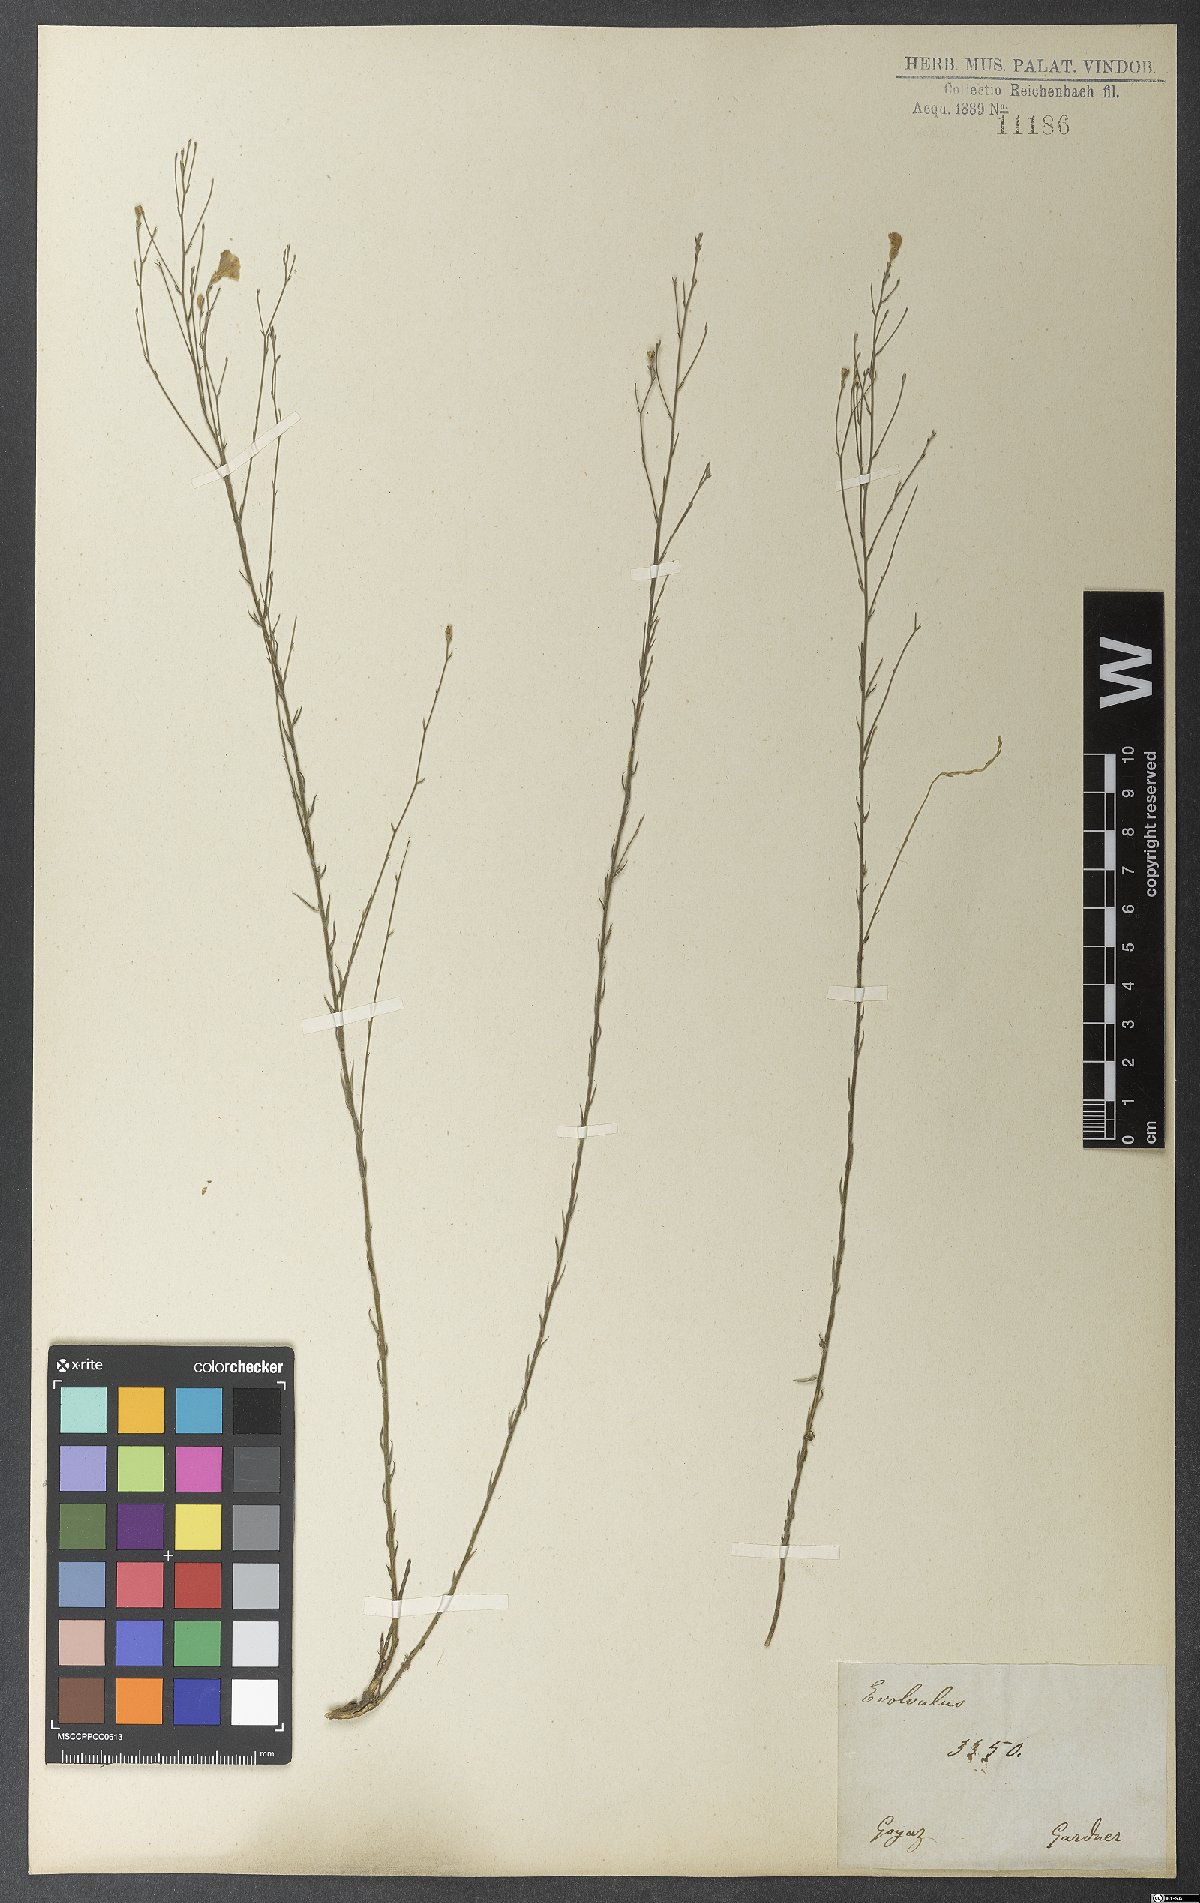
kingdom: Plantae
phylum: Tracheophyta
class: Magnoliopsida
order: Solanales
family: Convolvulaceae
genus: Evolvulus
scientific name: Evolvulus gypsophiloides
